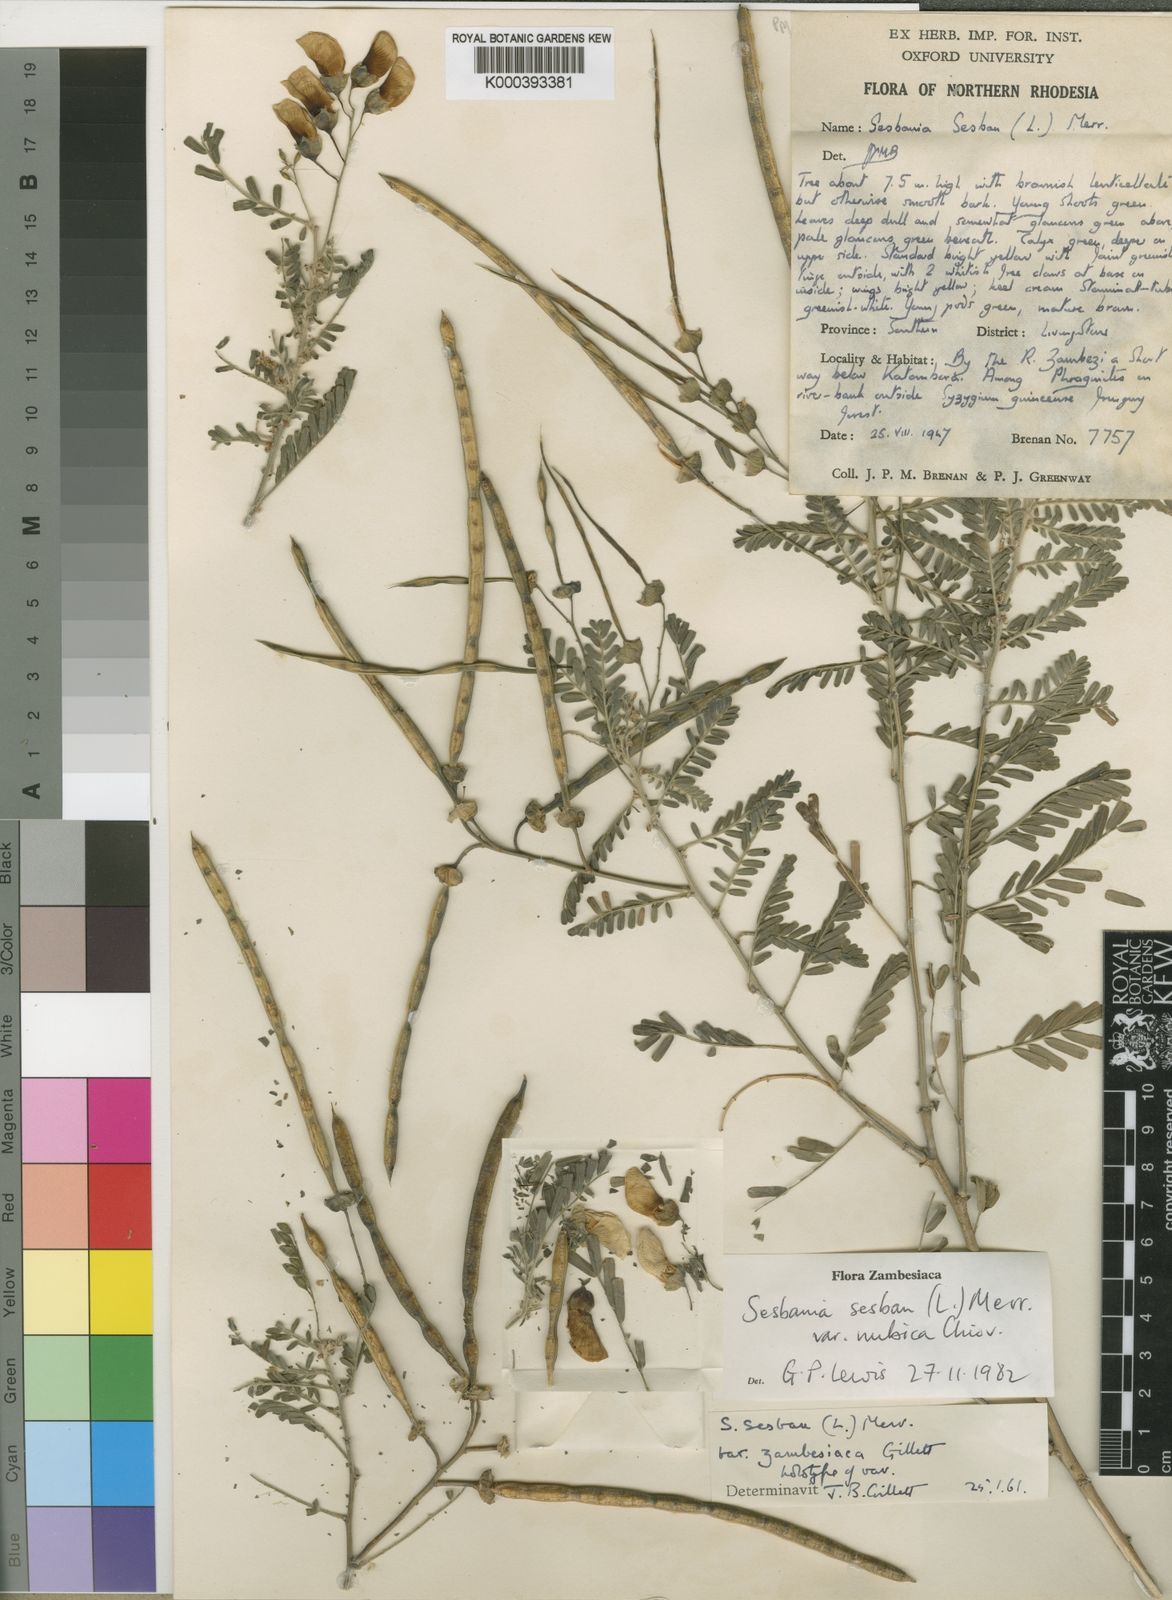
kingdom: Plantae
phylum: Tracheophyta
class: Magnoliopsida
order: Fabales
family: Fabaceae
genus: Sesbania
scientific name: Sesbania sesban
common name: Egyptian sesban
